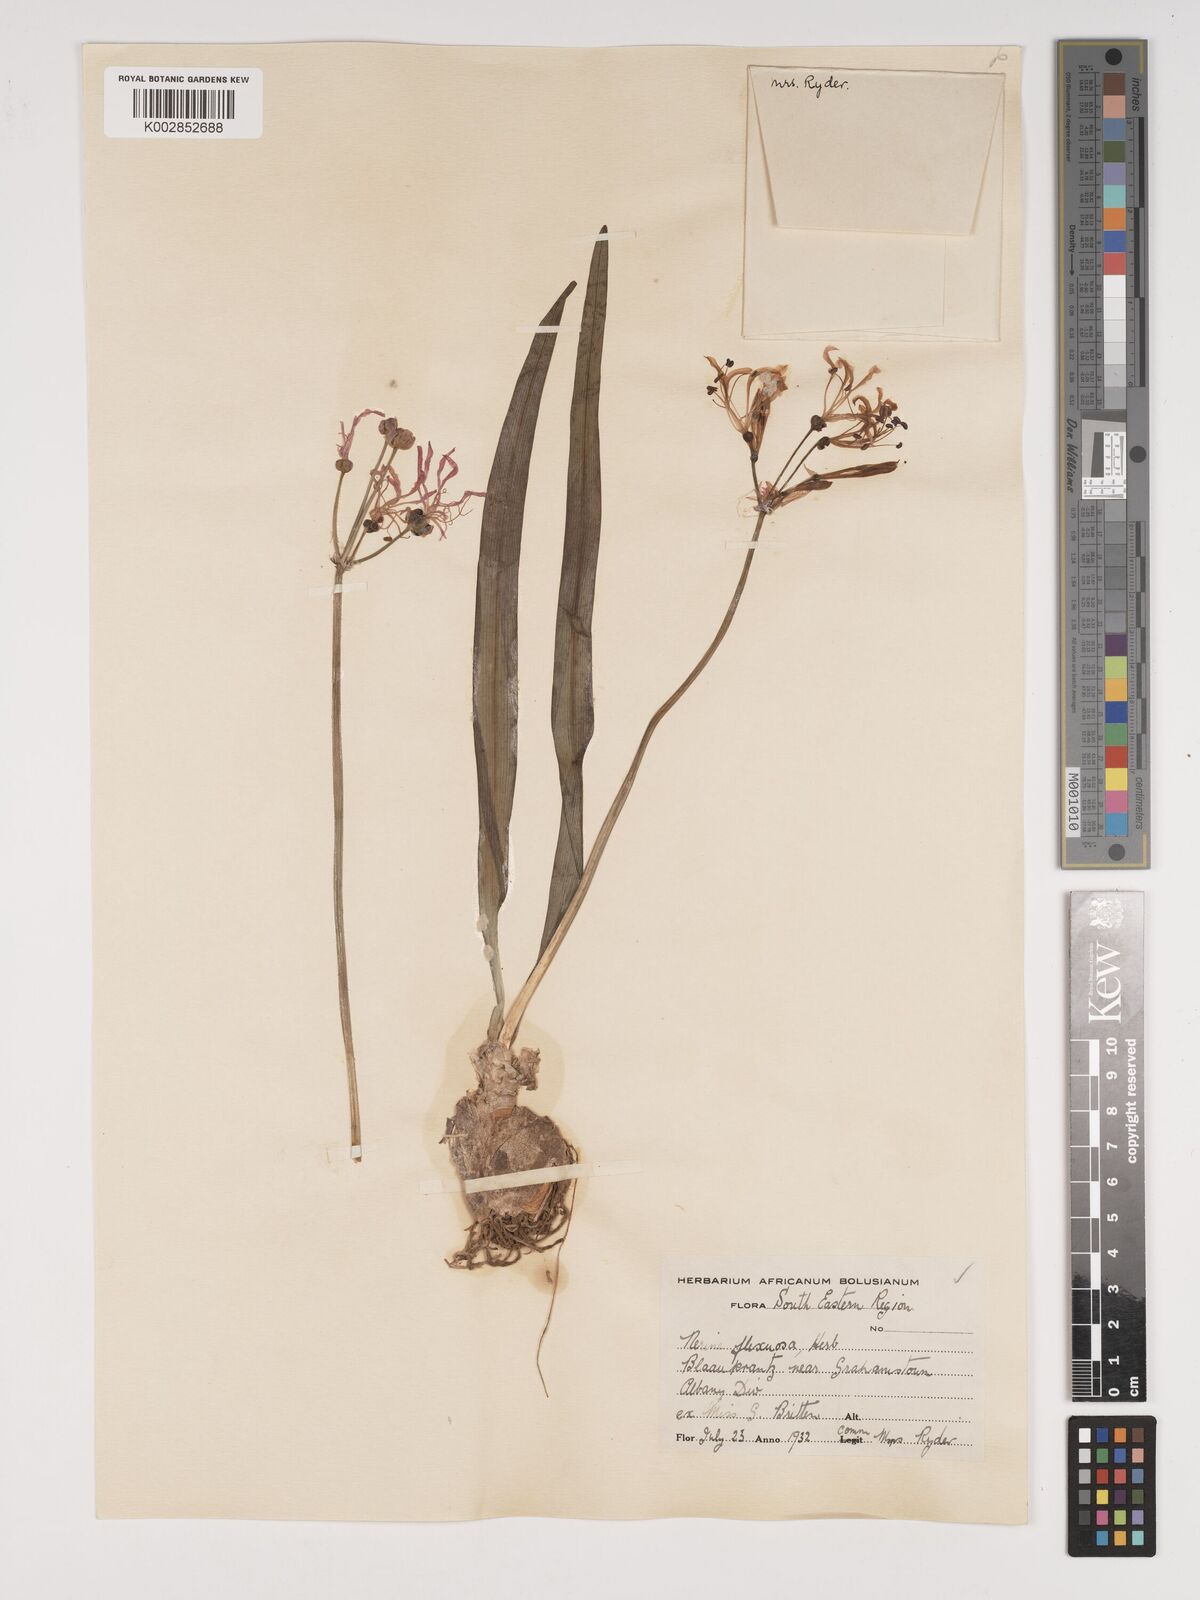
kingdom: Plantae
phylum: Tracheophyta
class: Liliopsida
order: Asparagales
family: Amaryllidaceae
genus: Nerine
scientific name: Nerine undulata
